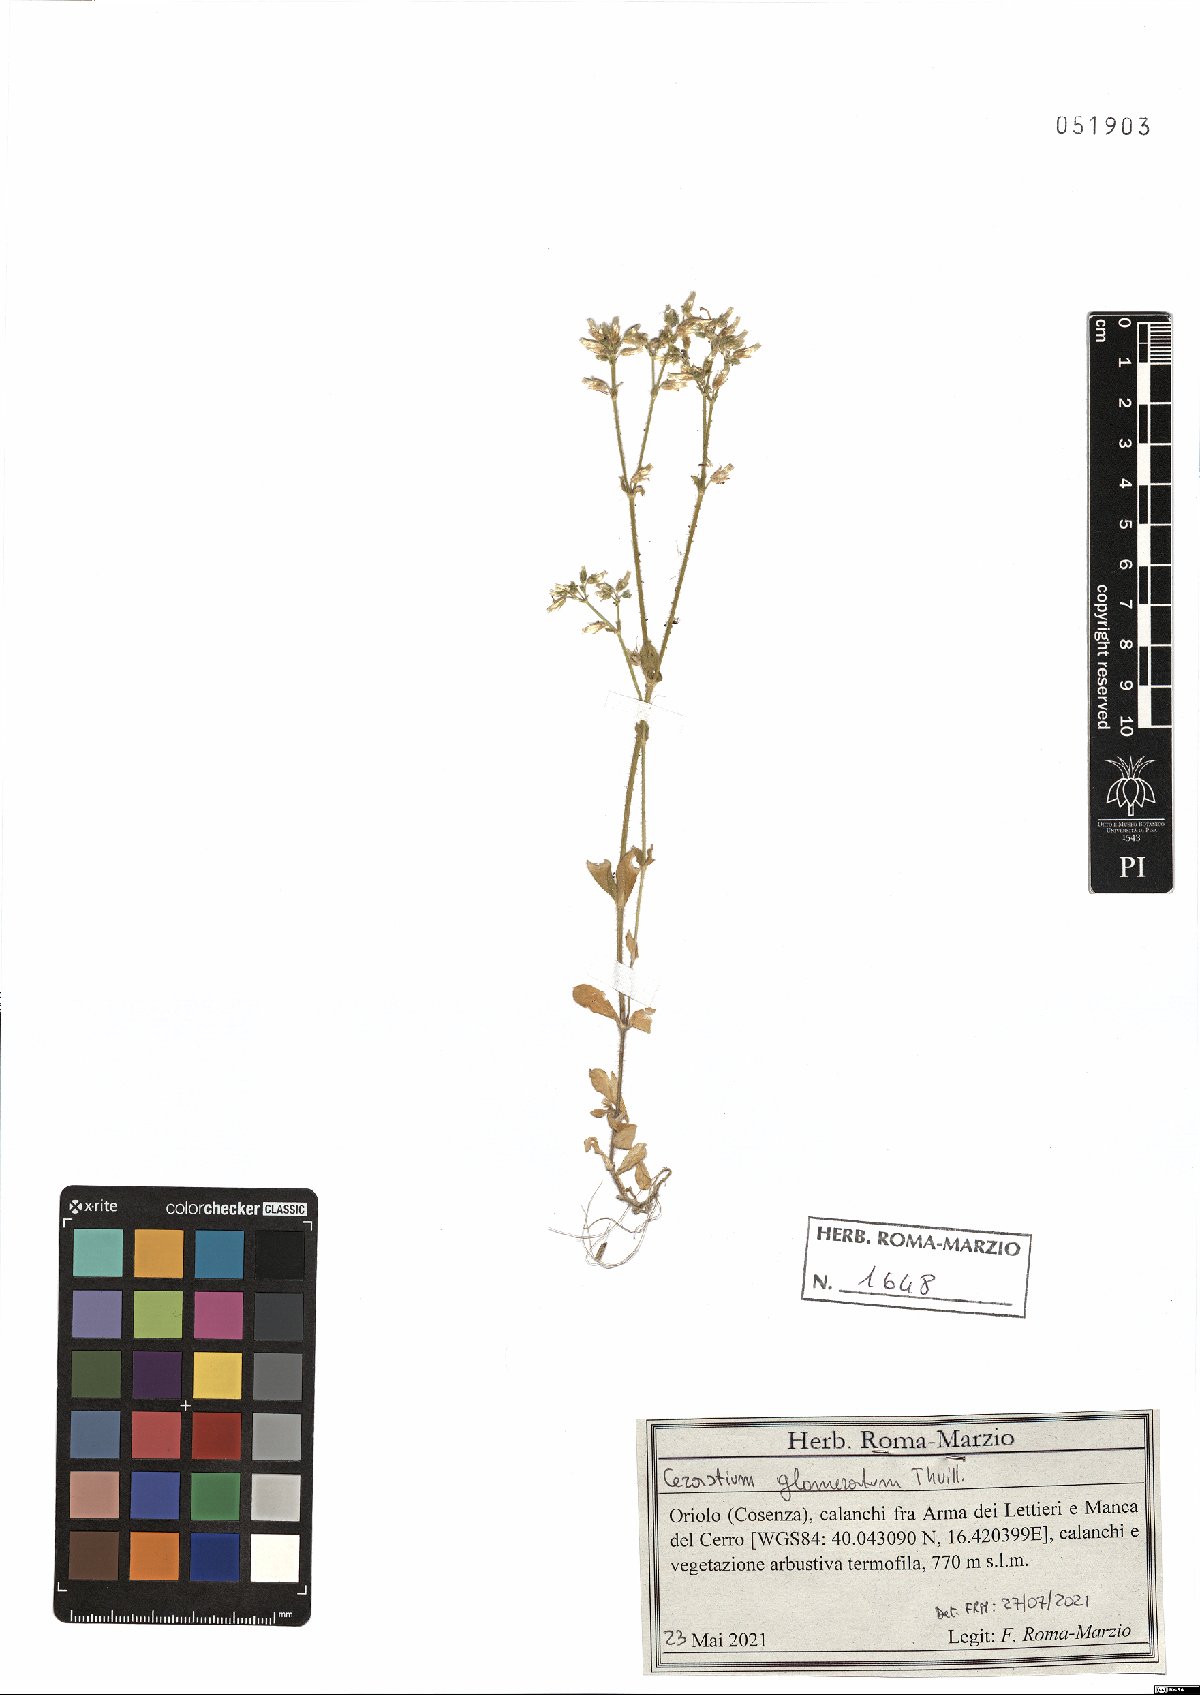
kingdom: Plantae
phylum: Tracheophyta
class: Magnoliopsida
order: Caryophyllales
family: Caryophyllaceae
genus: Cerastium
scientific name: Cerastium glomeratum
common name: Sticky chickweed
